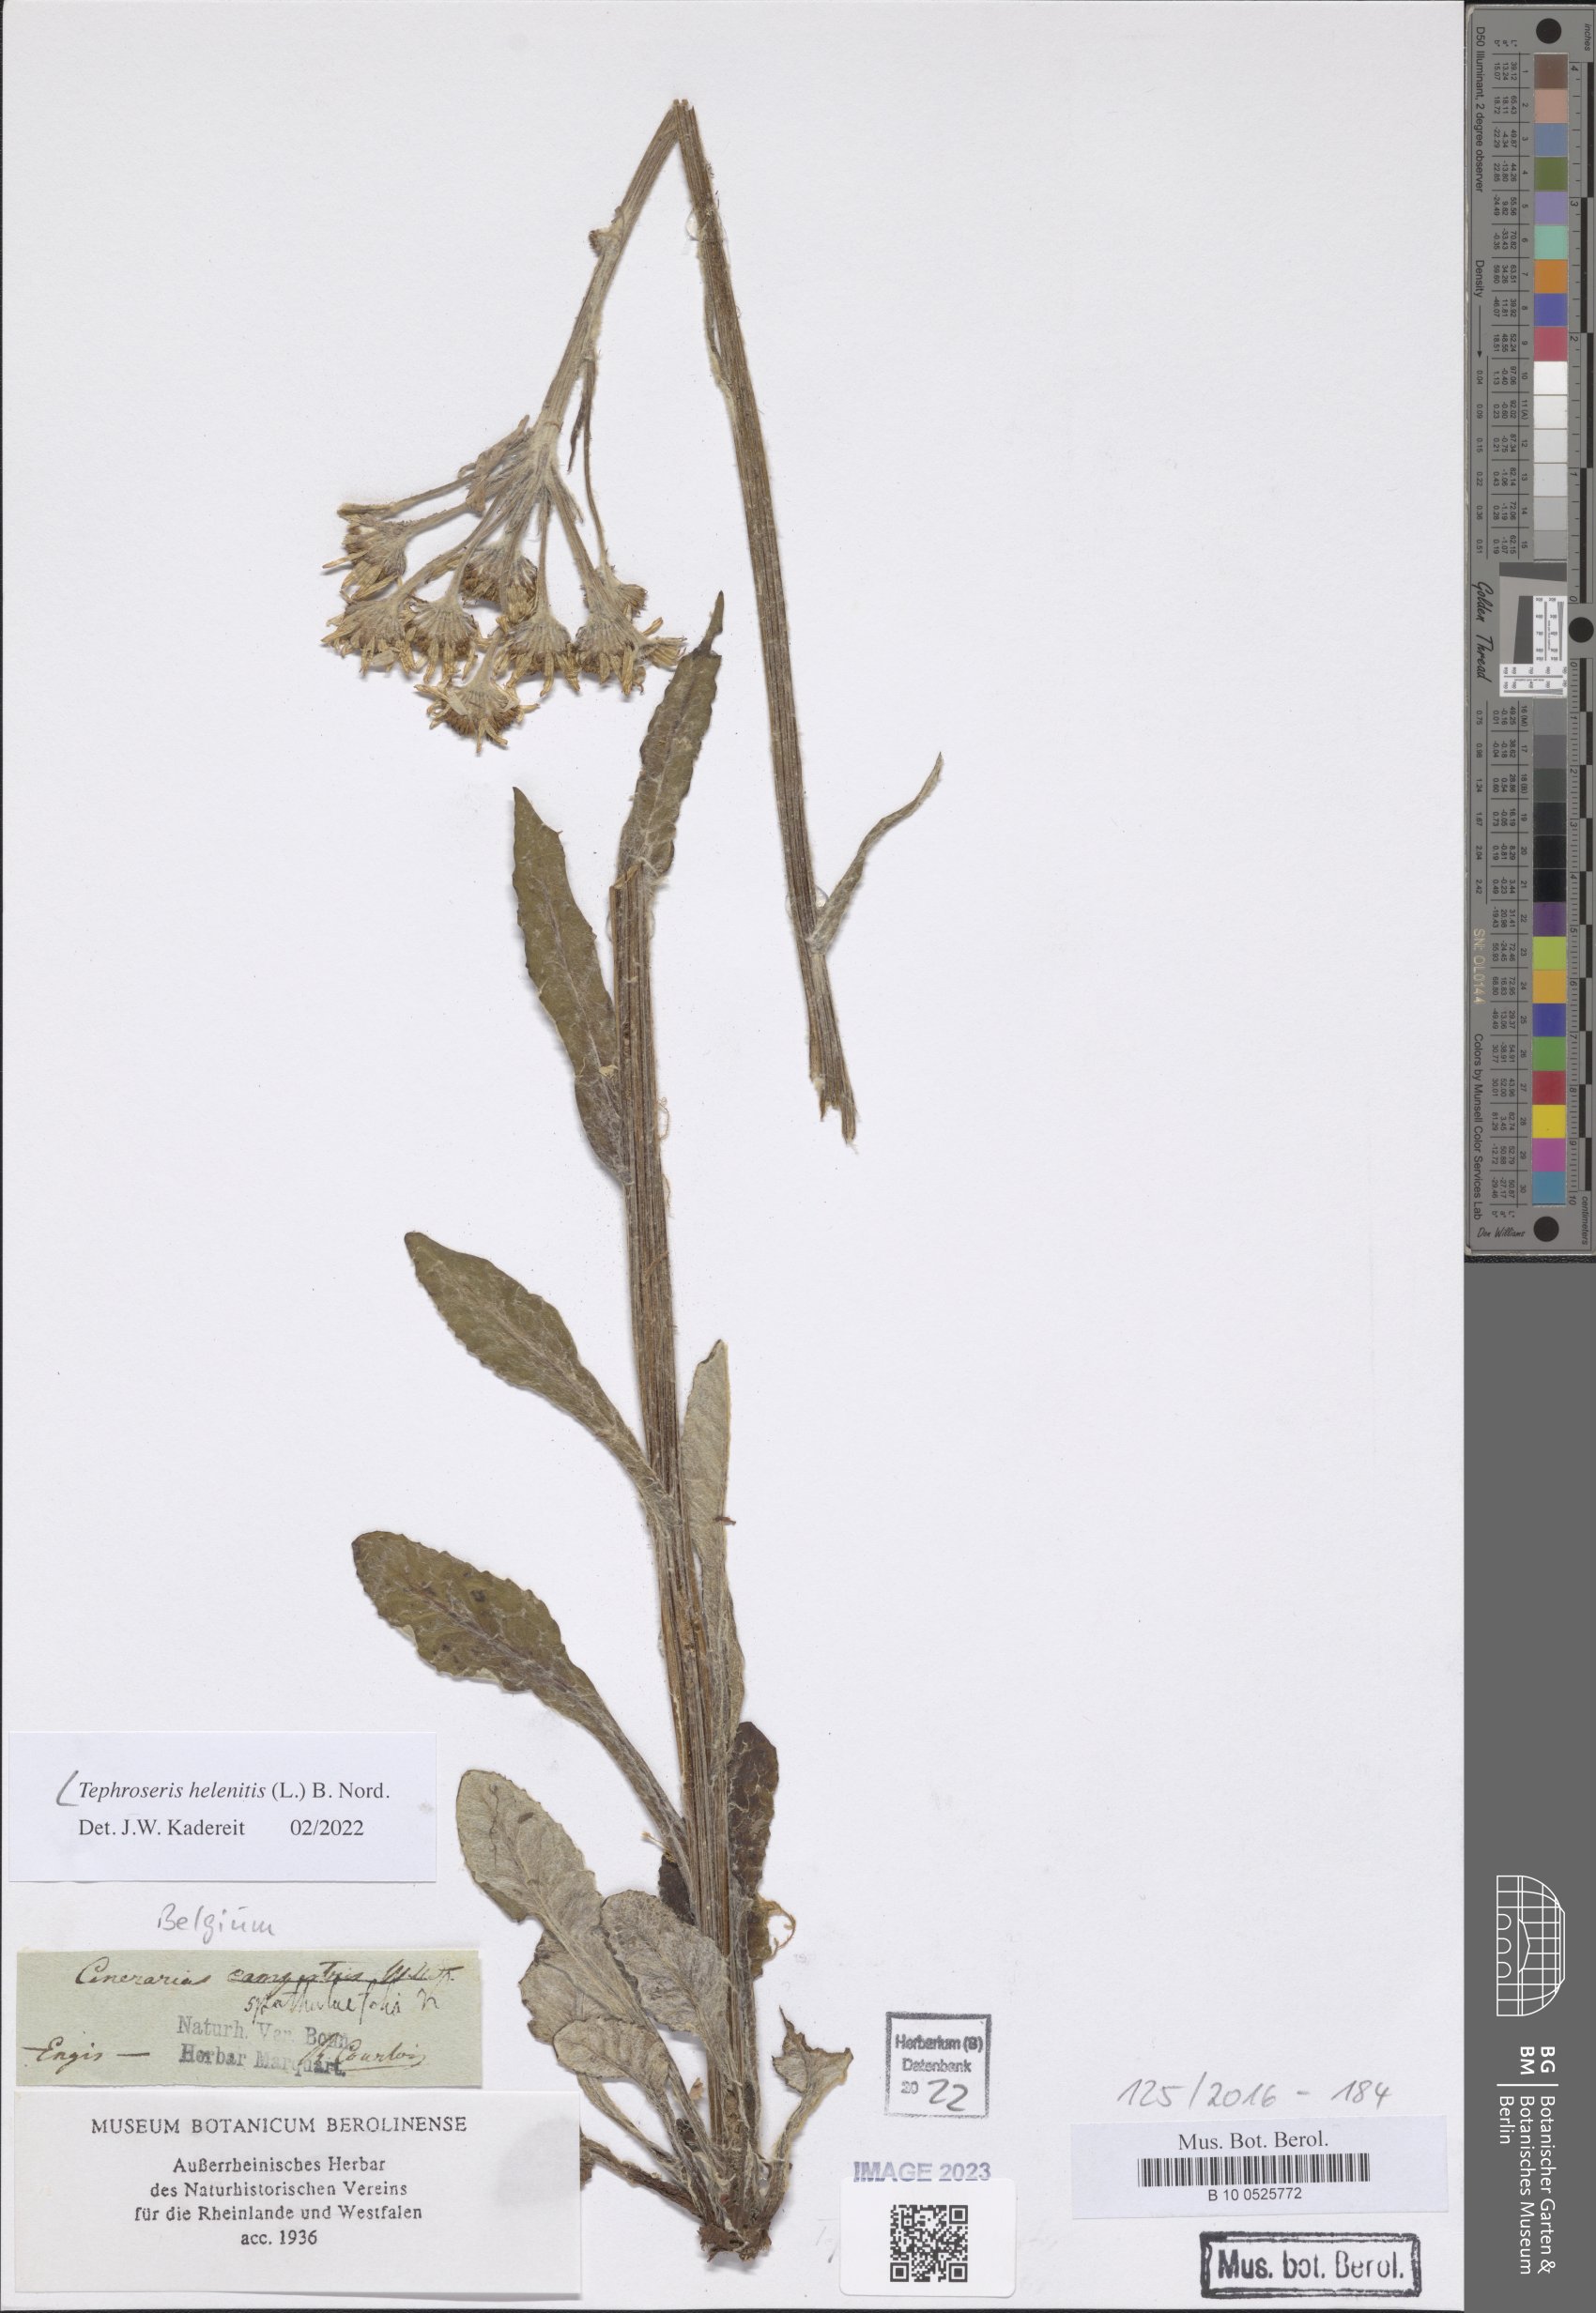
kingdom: Plantae
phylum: Tracheophyta
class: Magnoliopsida
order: Asterales
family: Asteraceae
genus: Tephroseris
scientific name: Tephroseris helenitis
